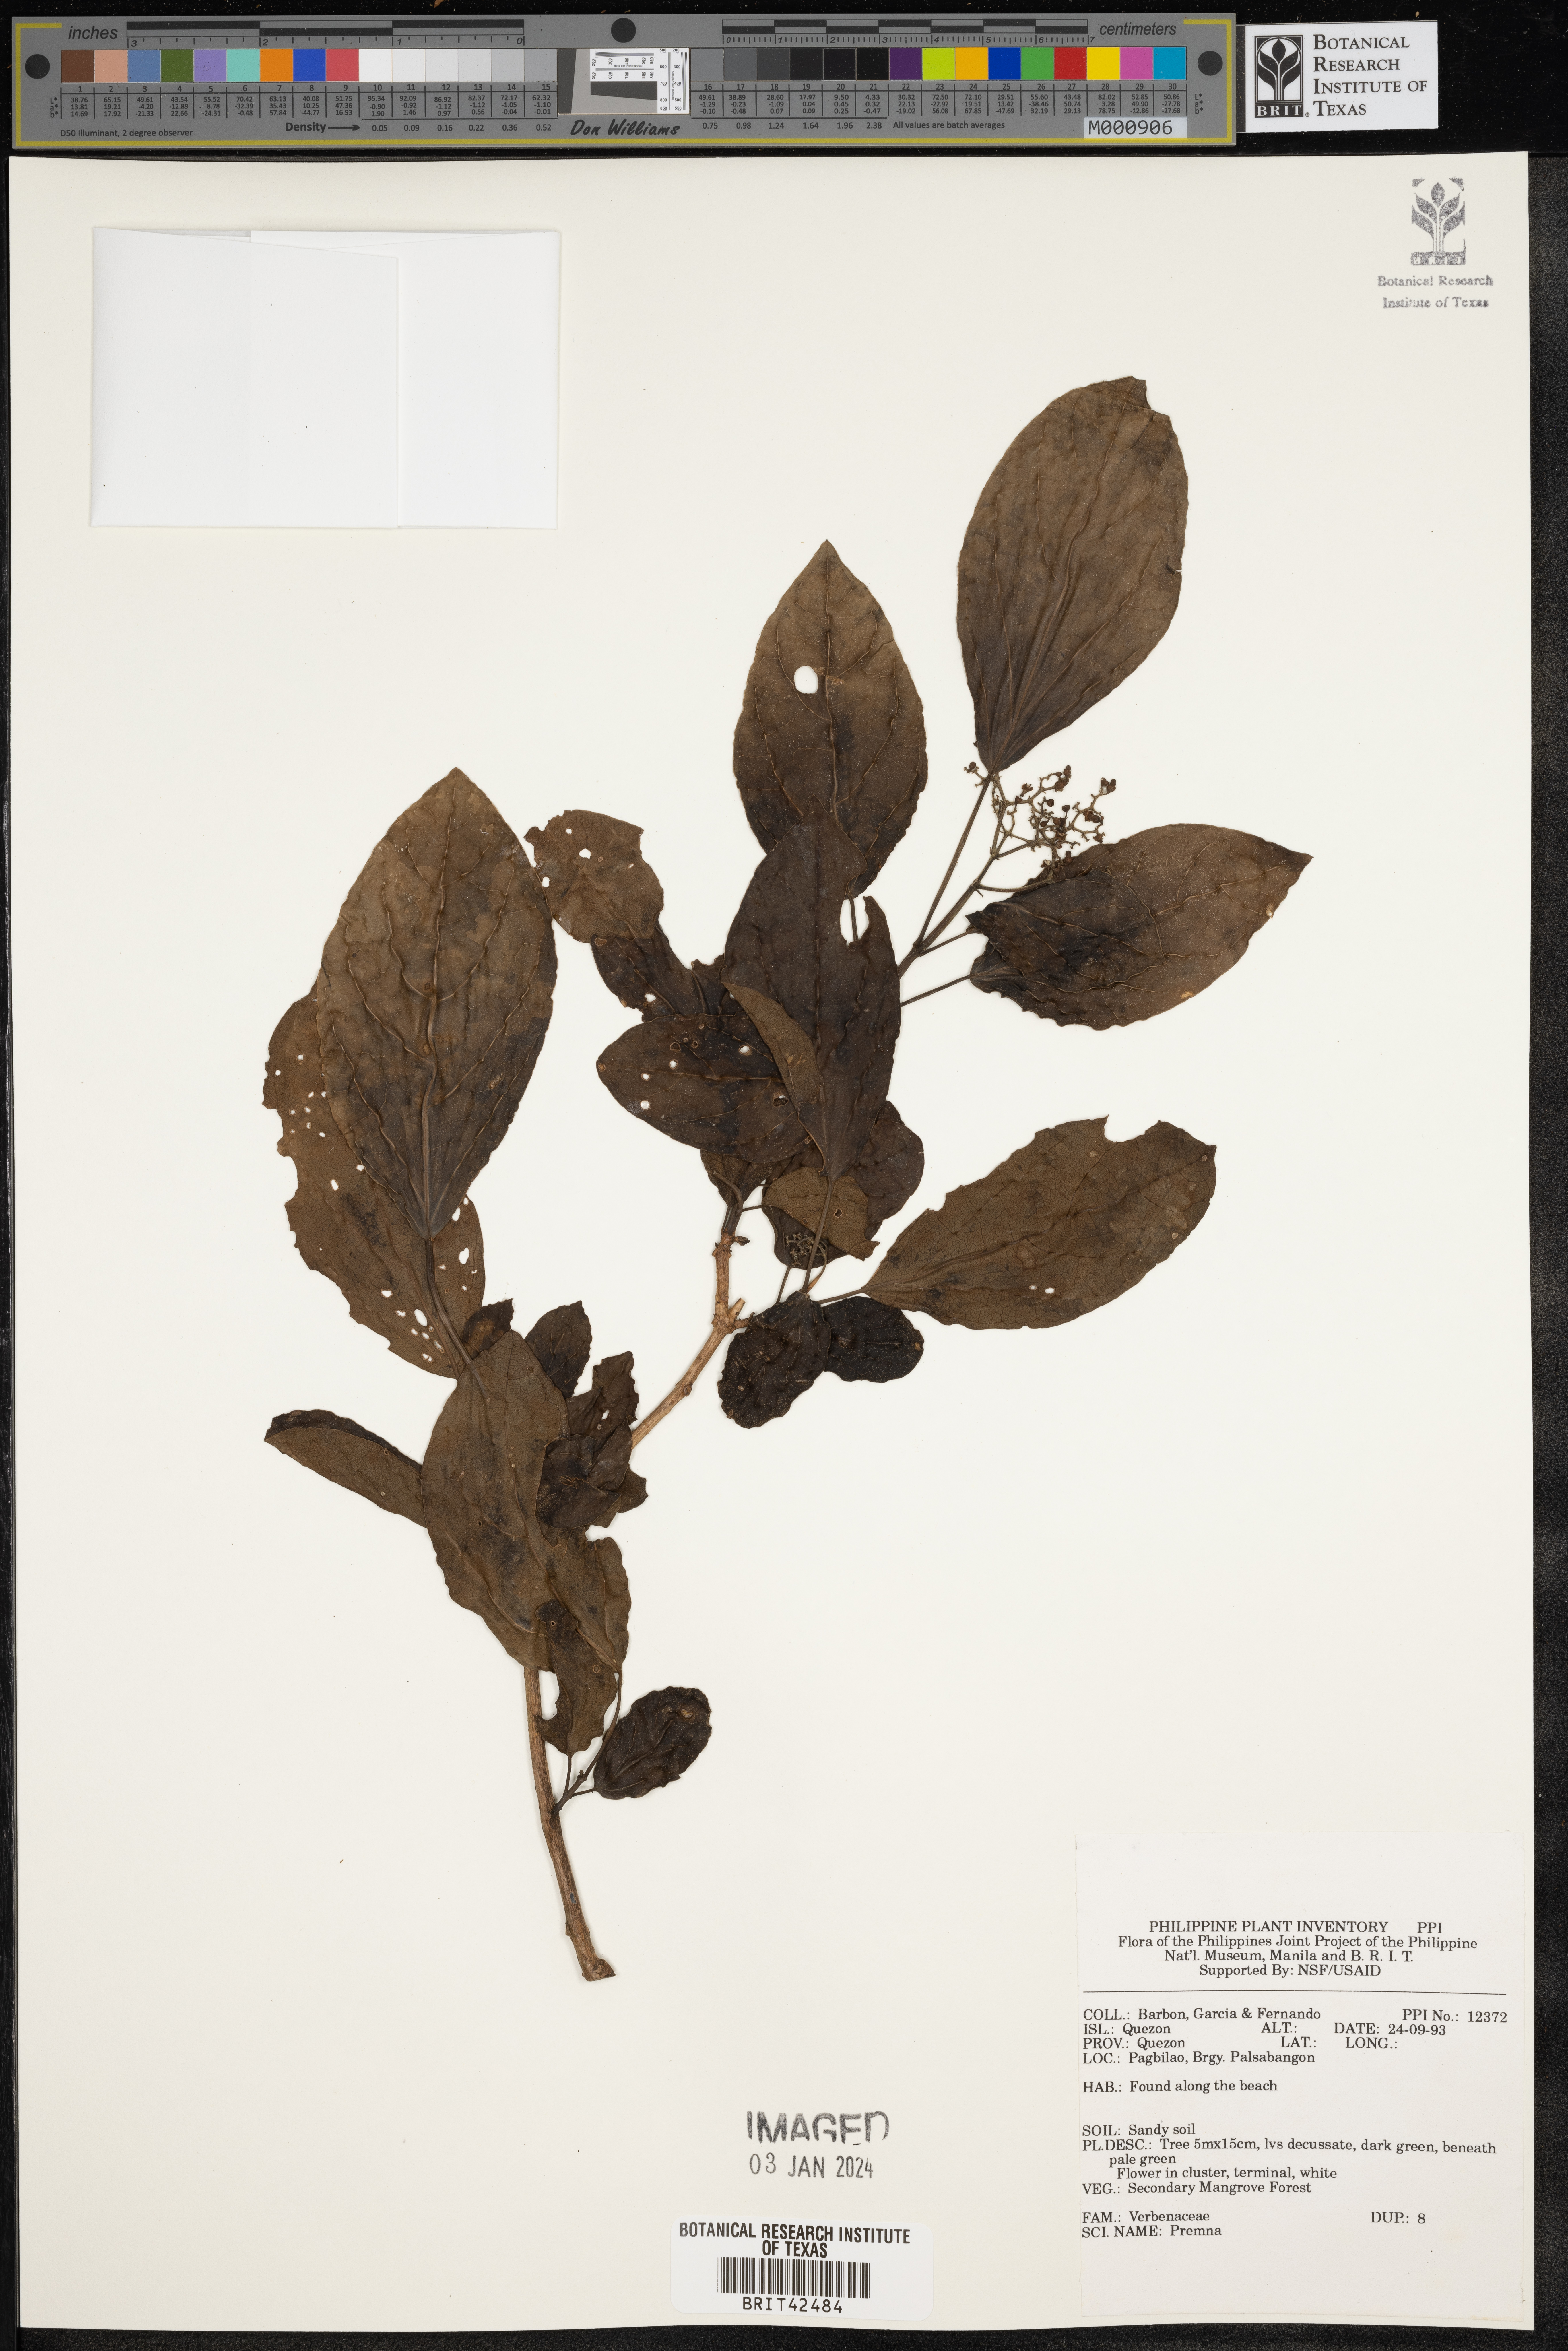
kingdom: Plantae
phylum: Tracheophyta
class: Magnoliopsida
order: Lamiales
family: Lamiaceae
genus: Premna
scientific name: Premna
